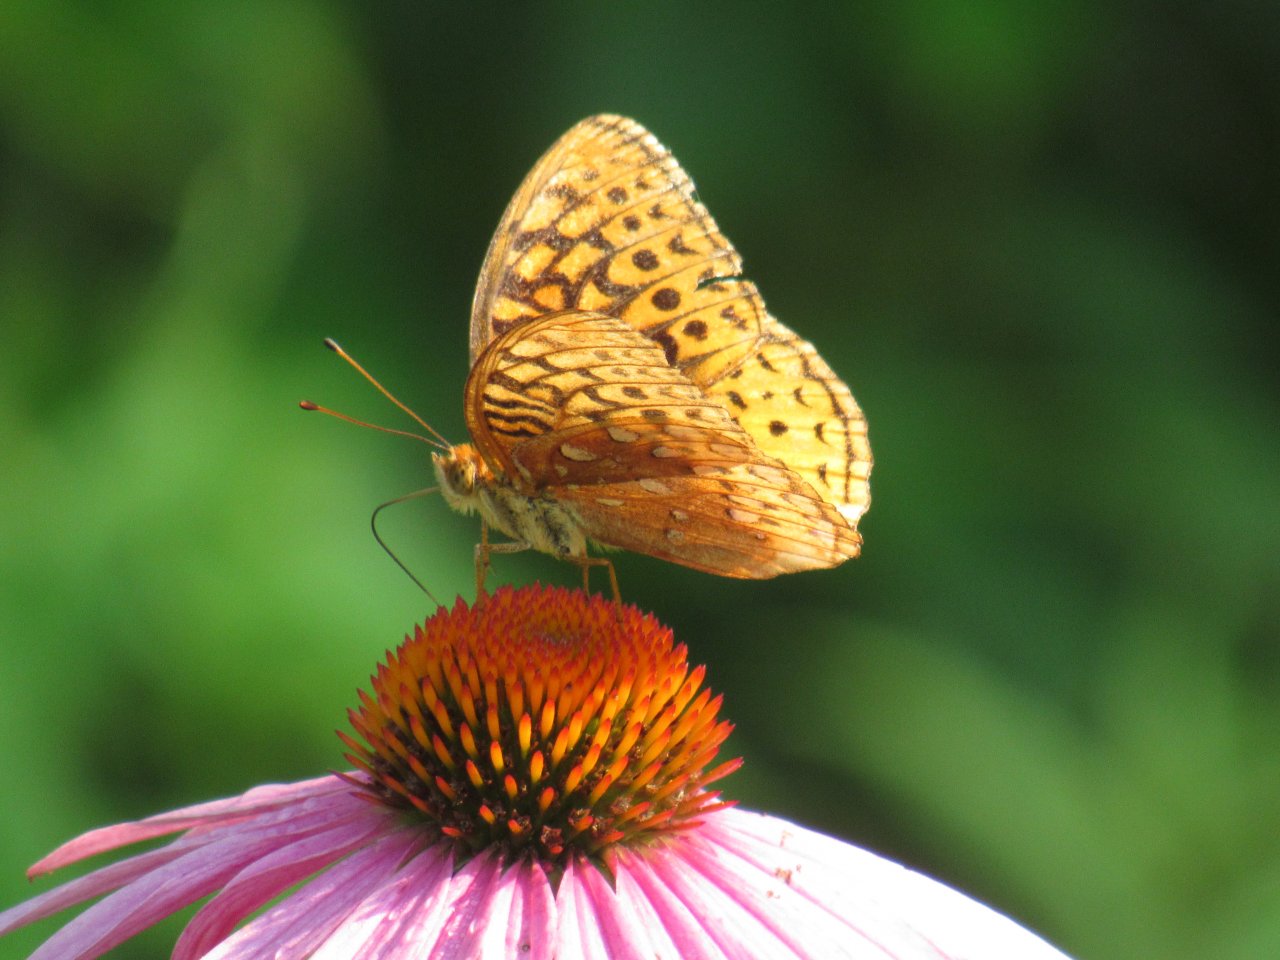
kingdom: Animalia
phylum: Arthropoda
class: Insecta
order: Lepidoptera
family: Nymphalidae
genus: Speyeria
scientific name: Speyeria cybele
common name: Great Spangled Fritillary
